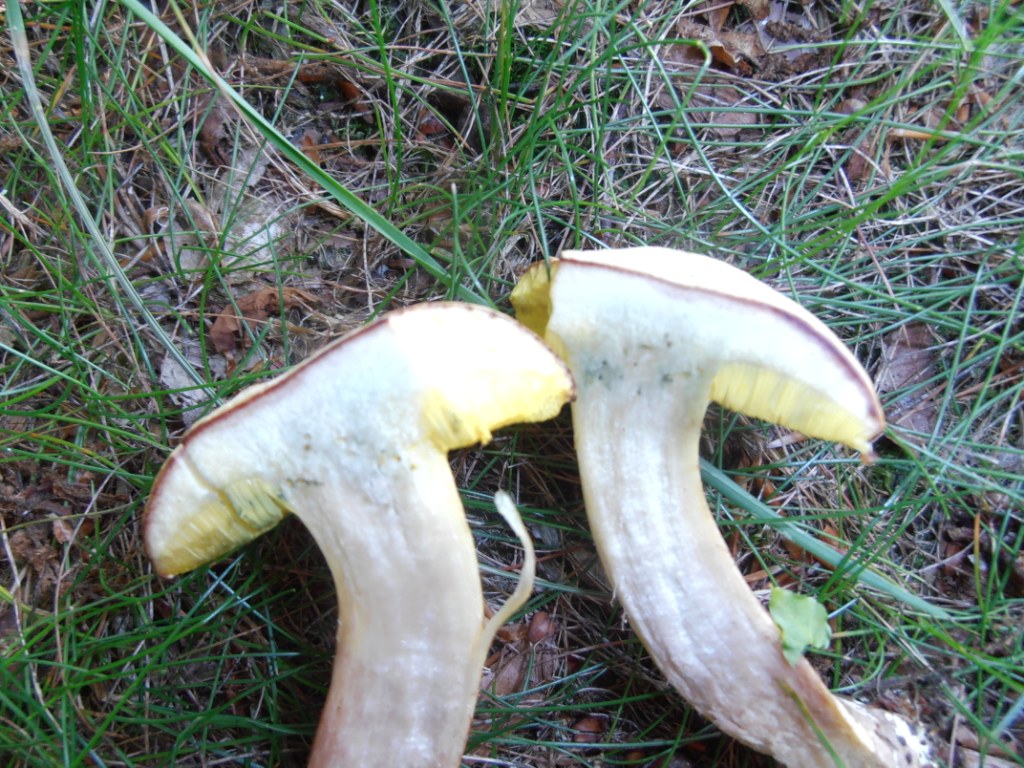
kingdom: Fungi
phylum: Basidiomycota
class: Agaricomycetes
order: Boletales
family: Boletaceae
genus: Xerocomus
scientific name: Xerocomus ferrugineus
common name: vaskeskinds-rørhat
